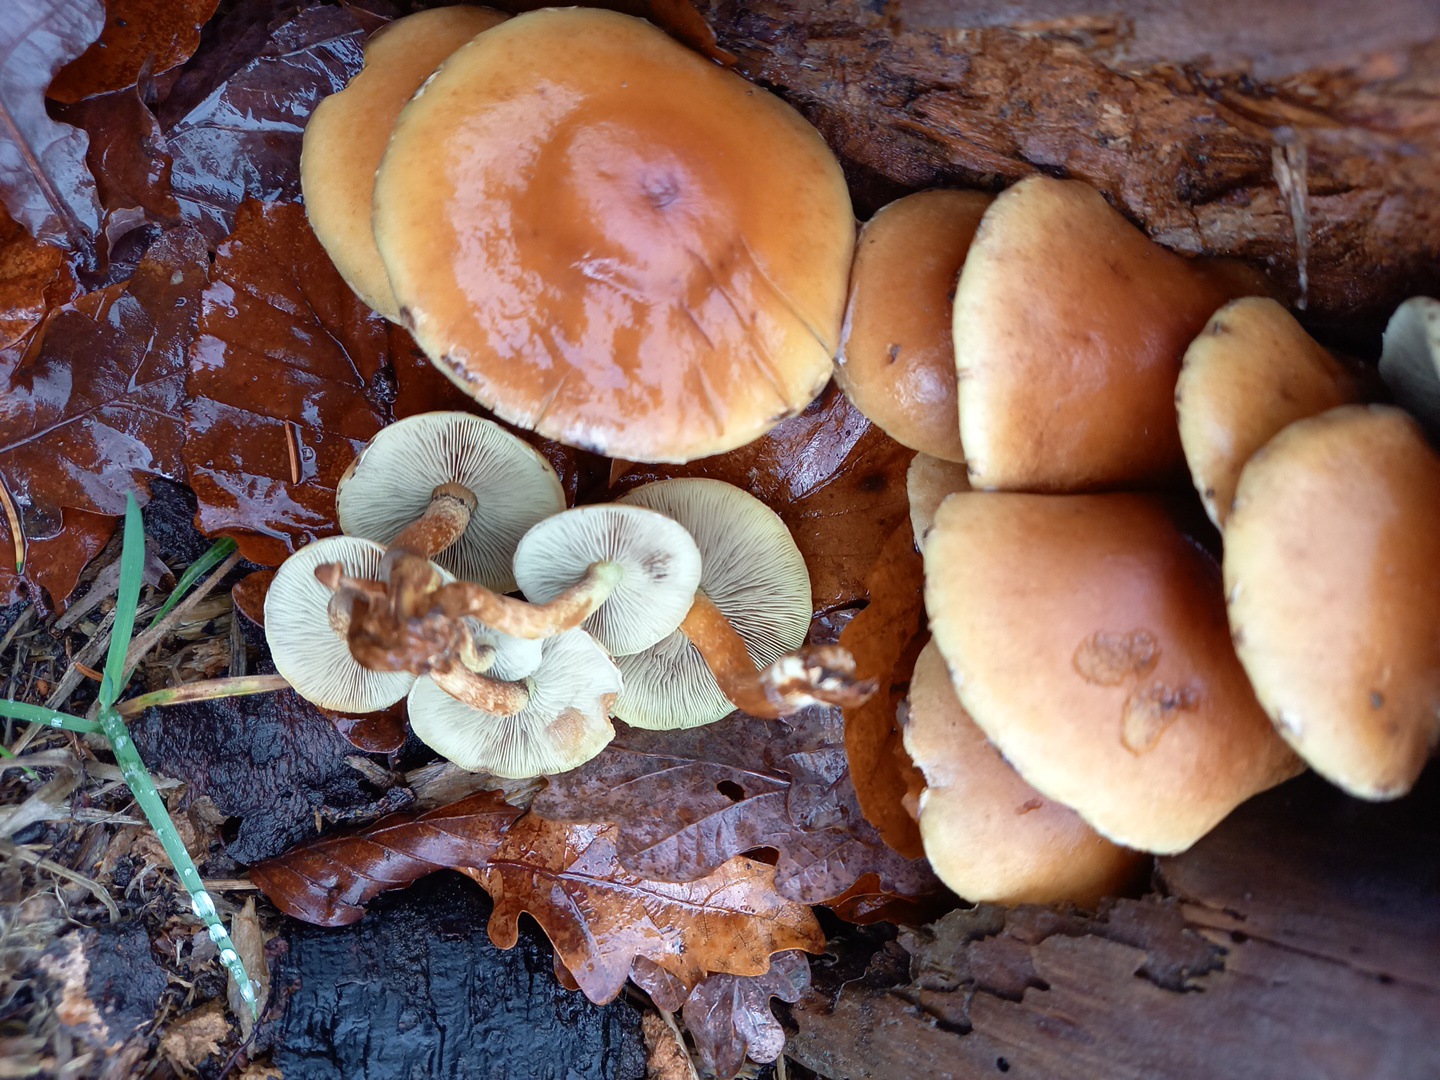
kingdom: Fungi
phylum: Basidiomycota
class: Agaricomycetes
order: Agaricales
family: Strophariaceae
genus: Hypholoma
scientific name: Hypholoma fasciculare
